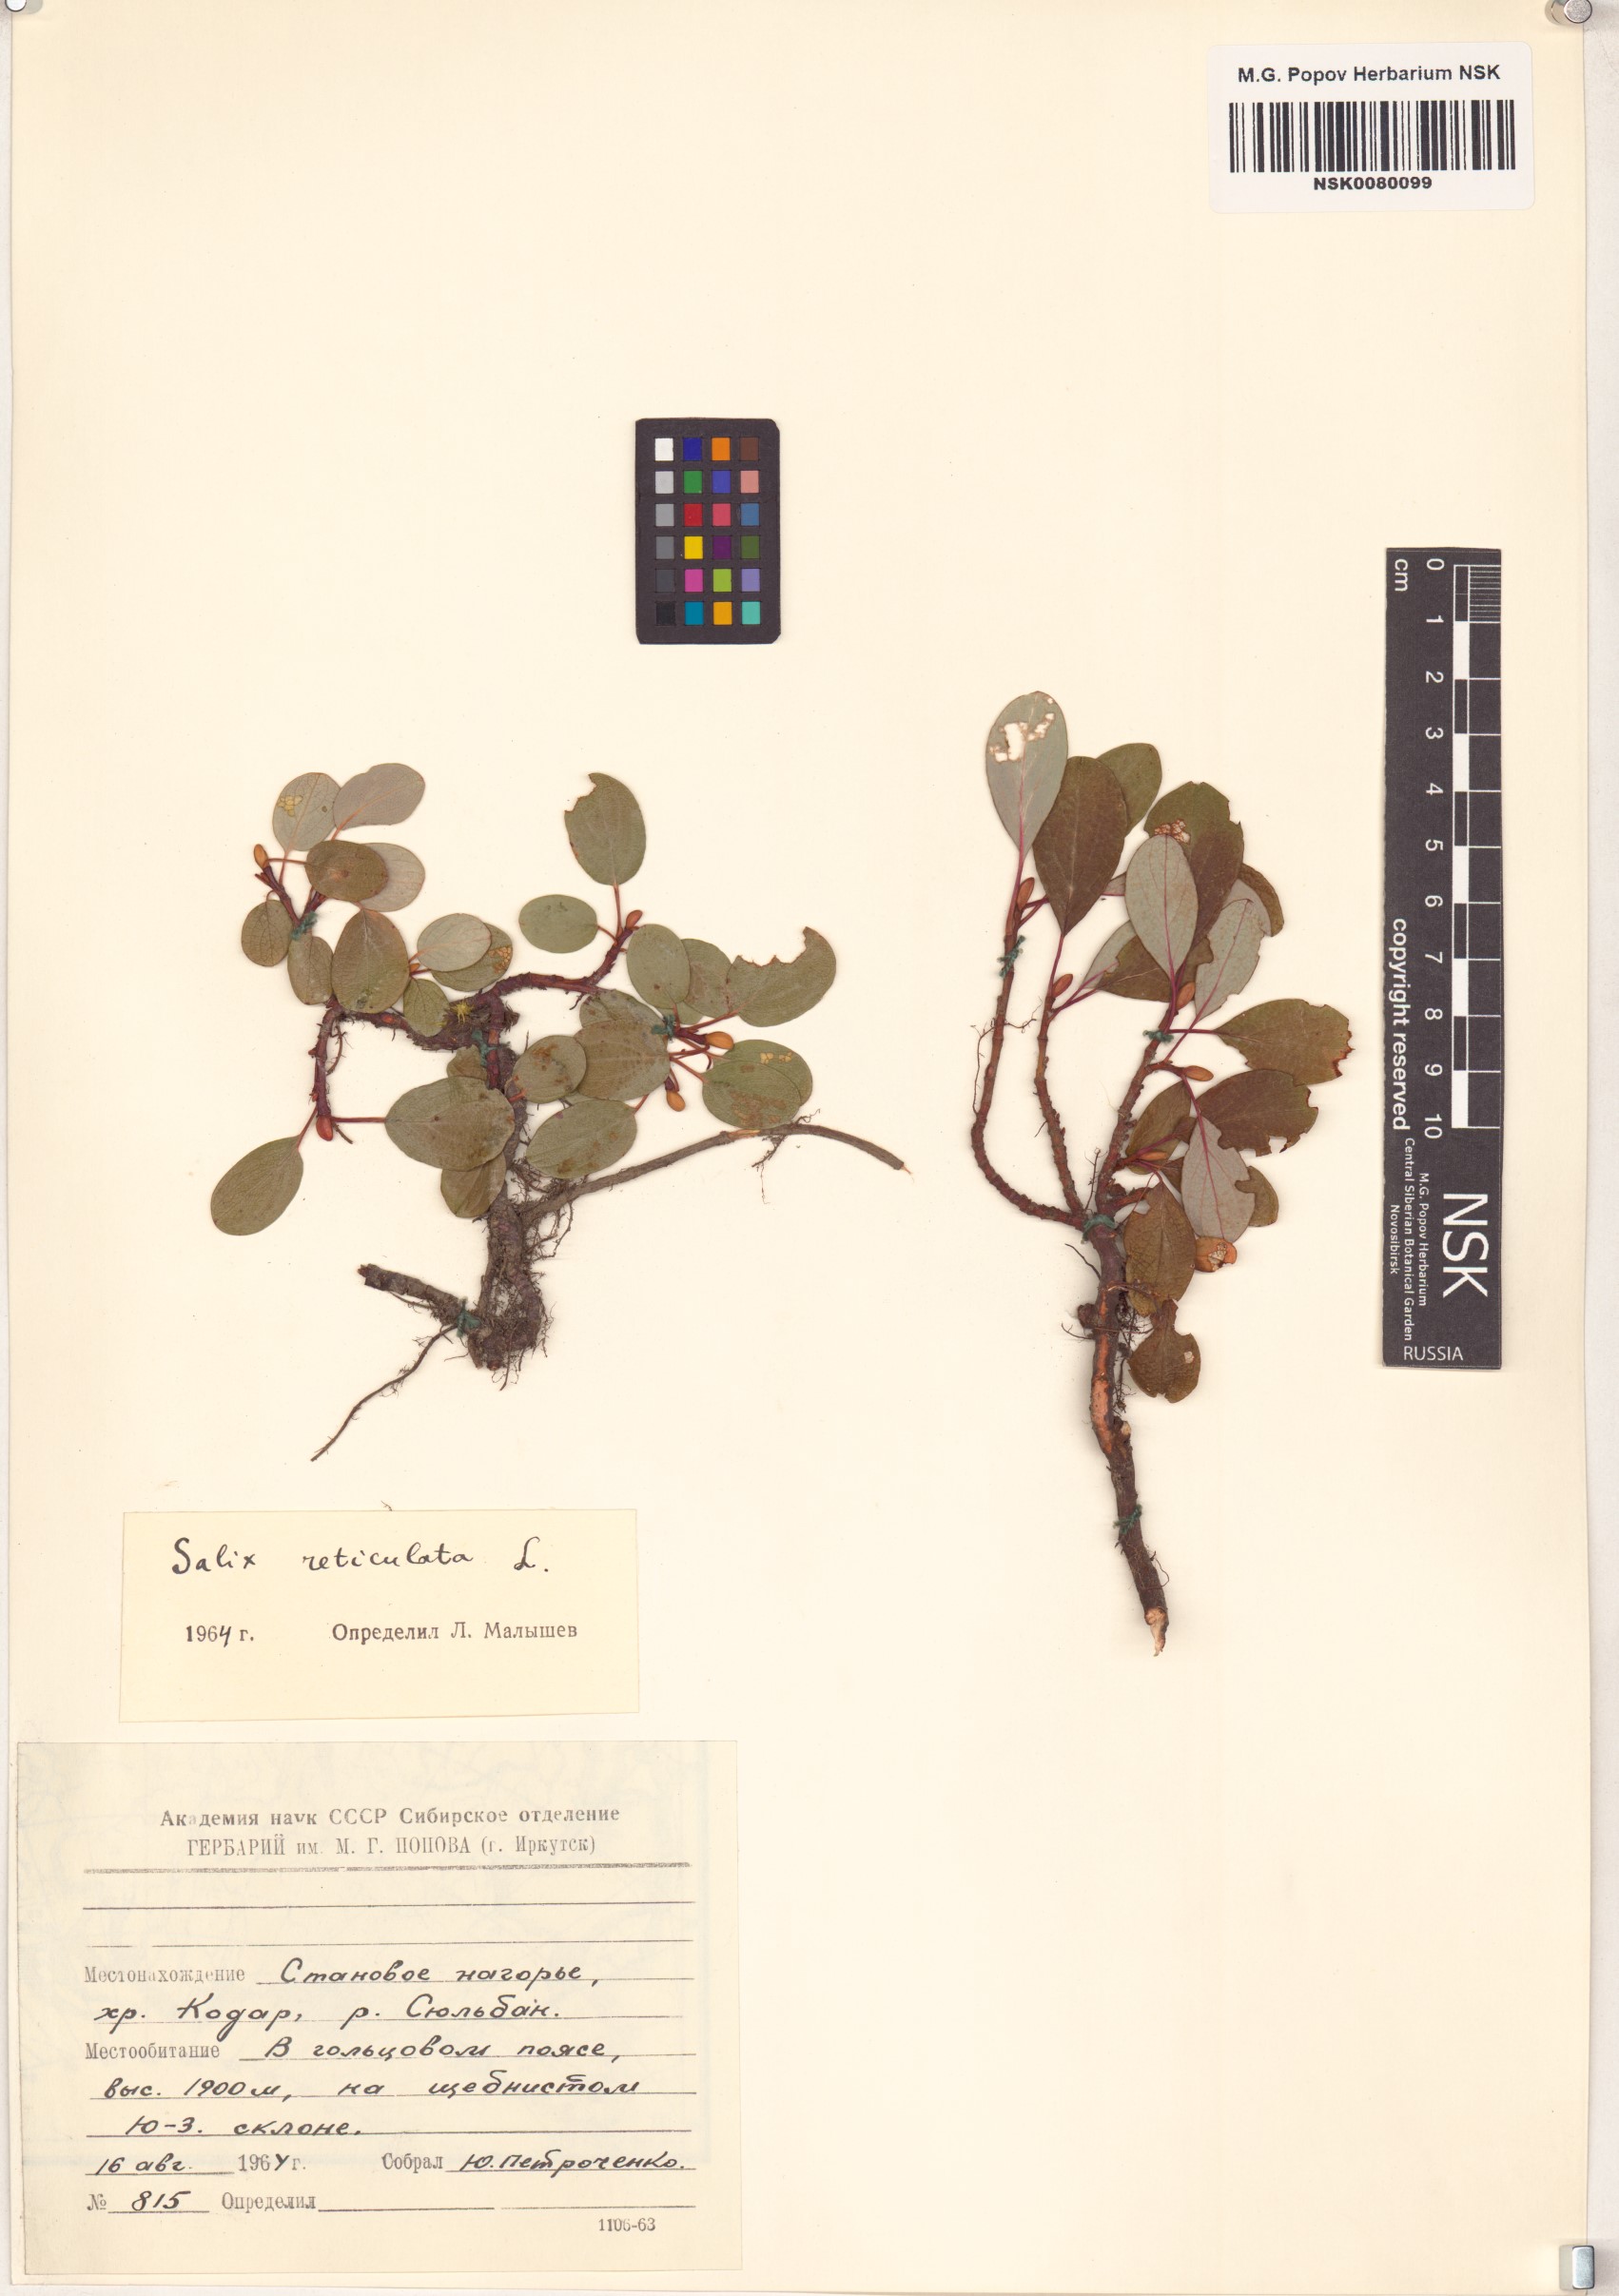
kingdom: Plantae
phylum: Tracheophyta
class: Magnoliopsida
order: Malpighiales
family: Salicaceae
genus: Salix
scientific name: Salix reticulata
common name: Net-leaved willow
